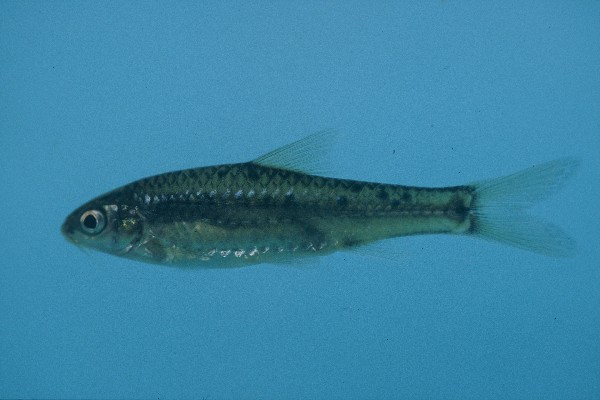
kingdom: Animalia
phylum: Chordata
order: Cypriniformes
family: Cyprinidae
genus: Enteromius
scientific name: Enteromius lineomaculatus
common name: Line-spotted barb
